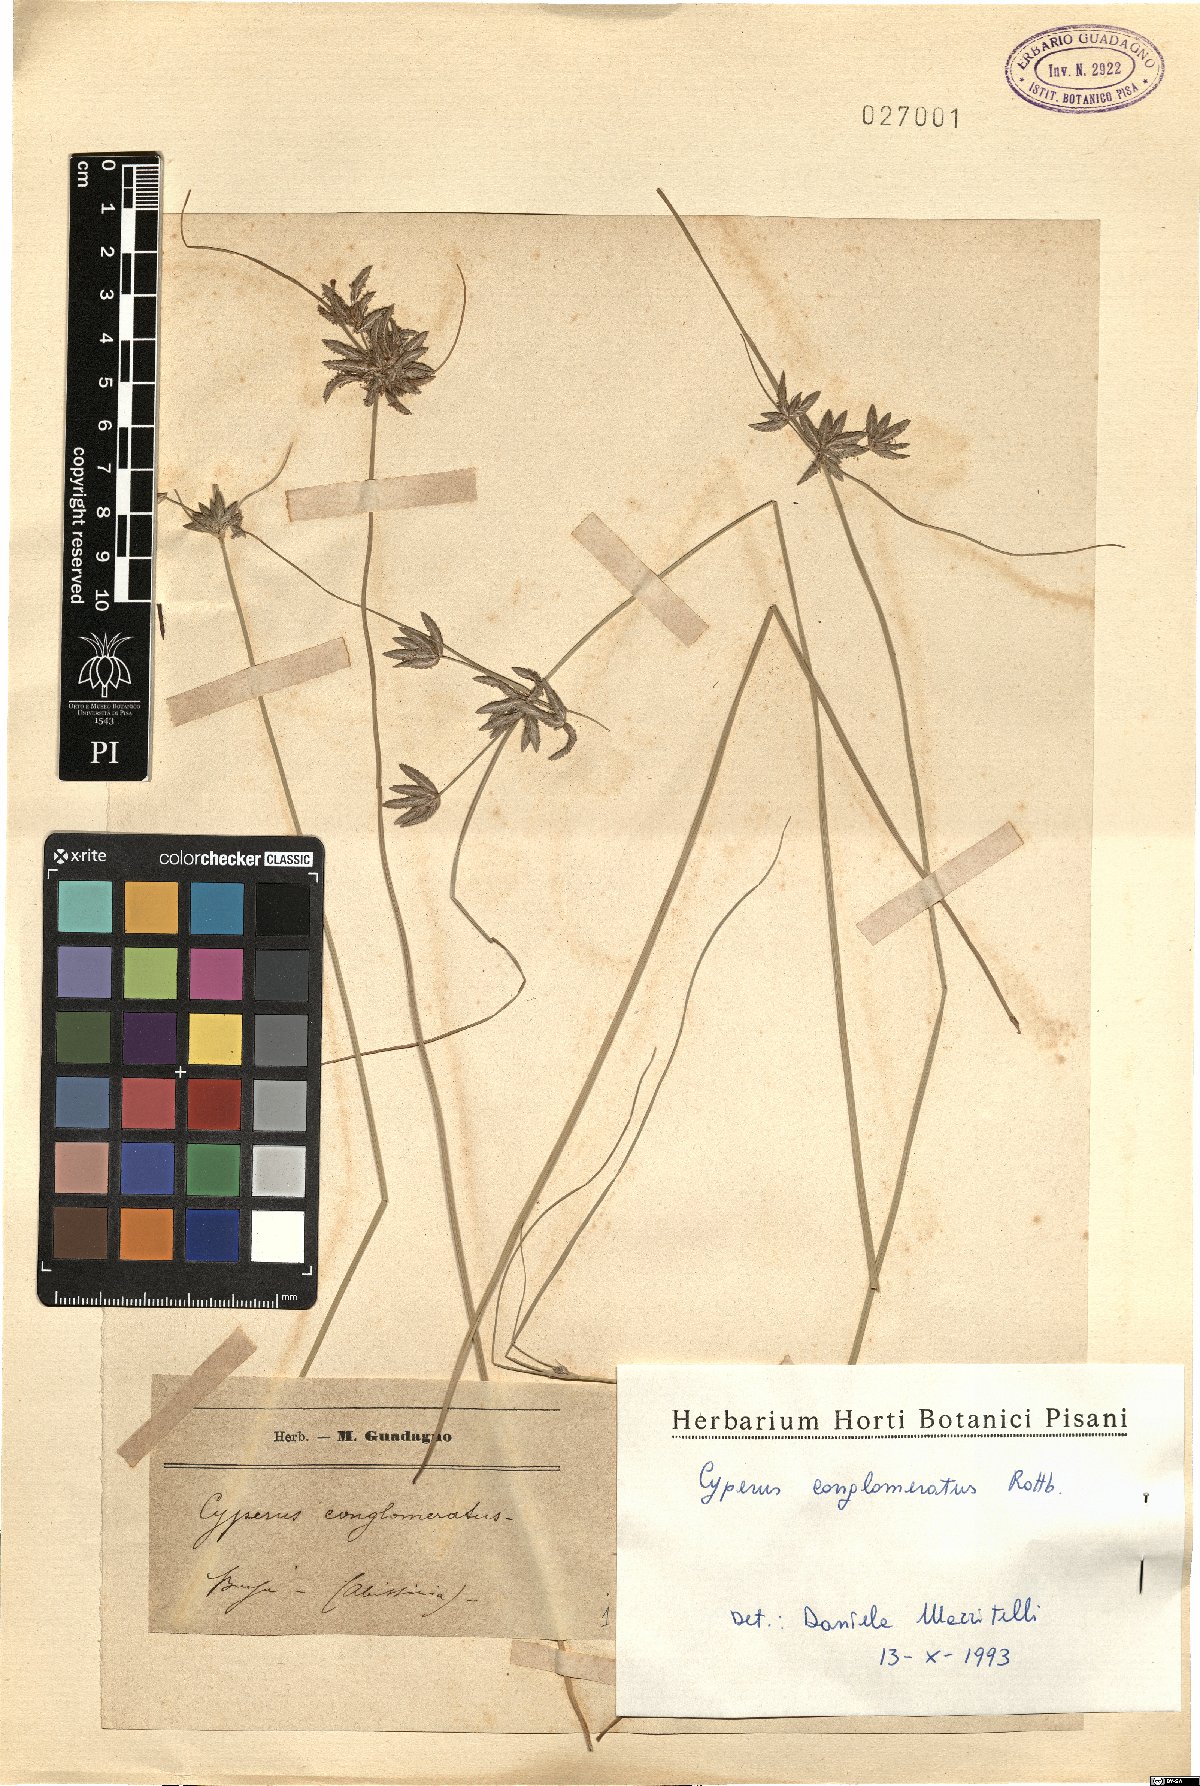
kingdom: Plantae
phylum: Tracheophyta
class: Liliopsida
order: Poales
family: Cyperaceae
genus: Cyperus
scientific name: Cyperus conglomeratus
